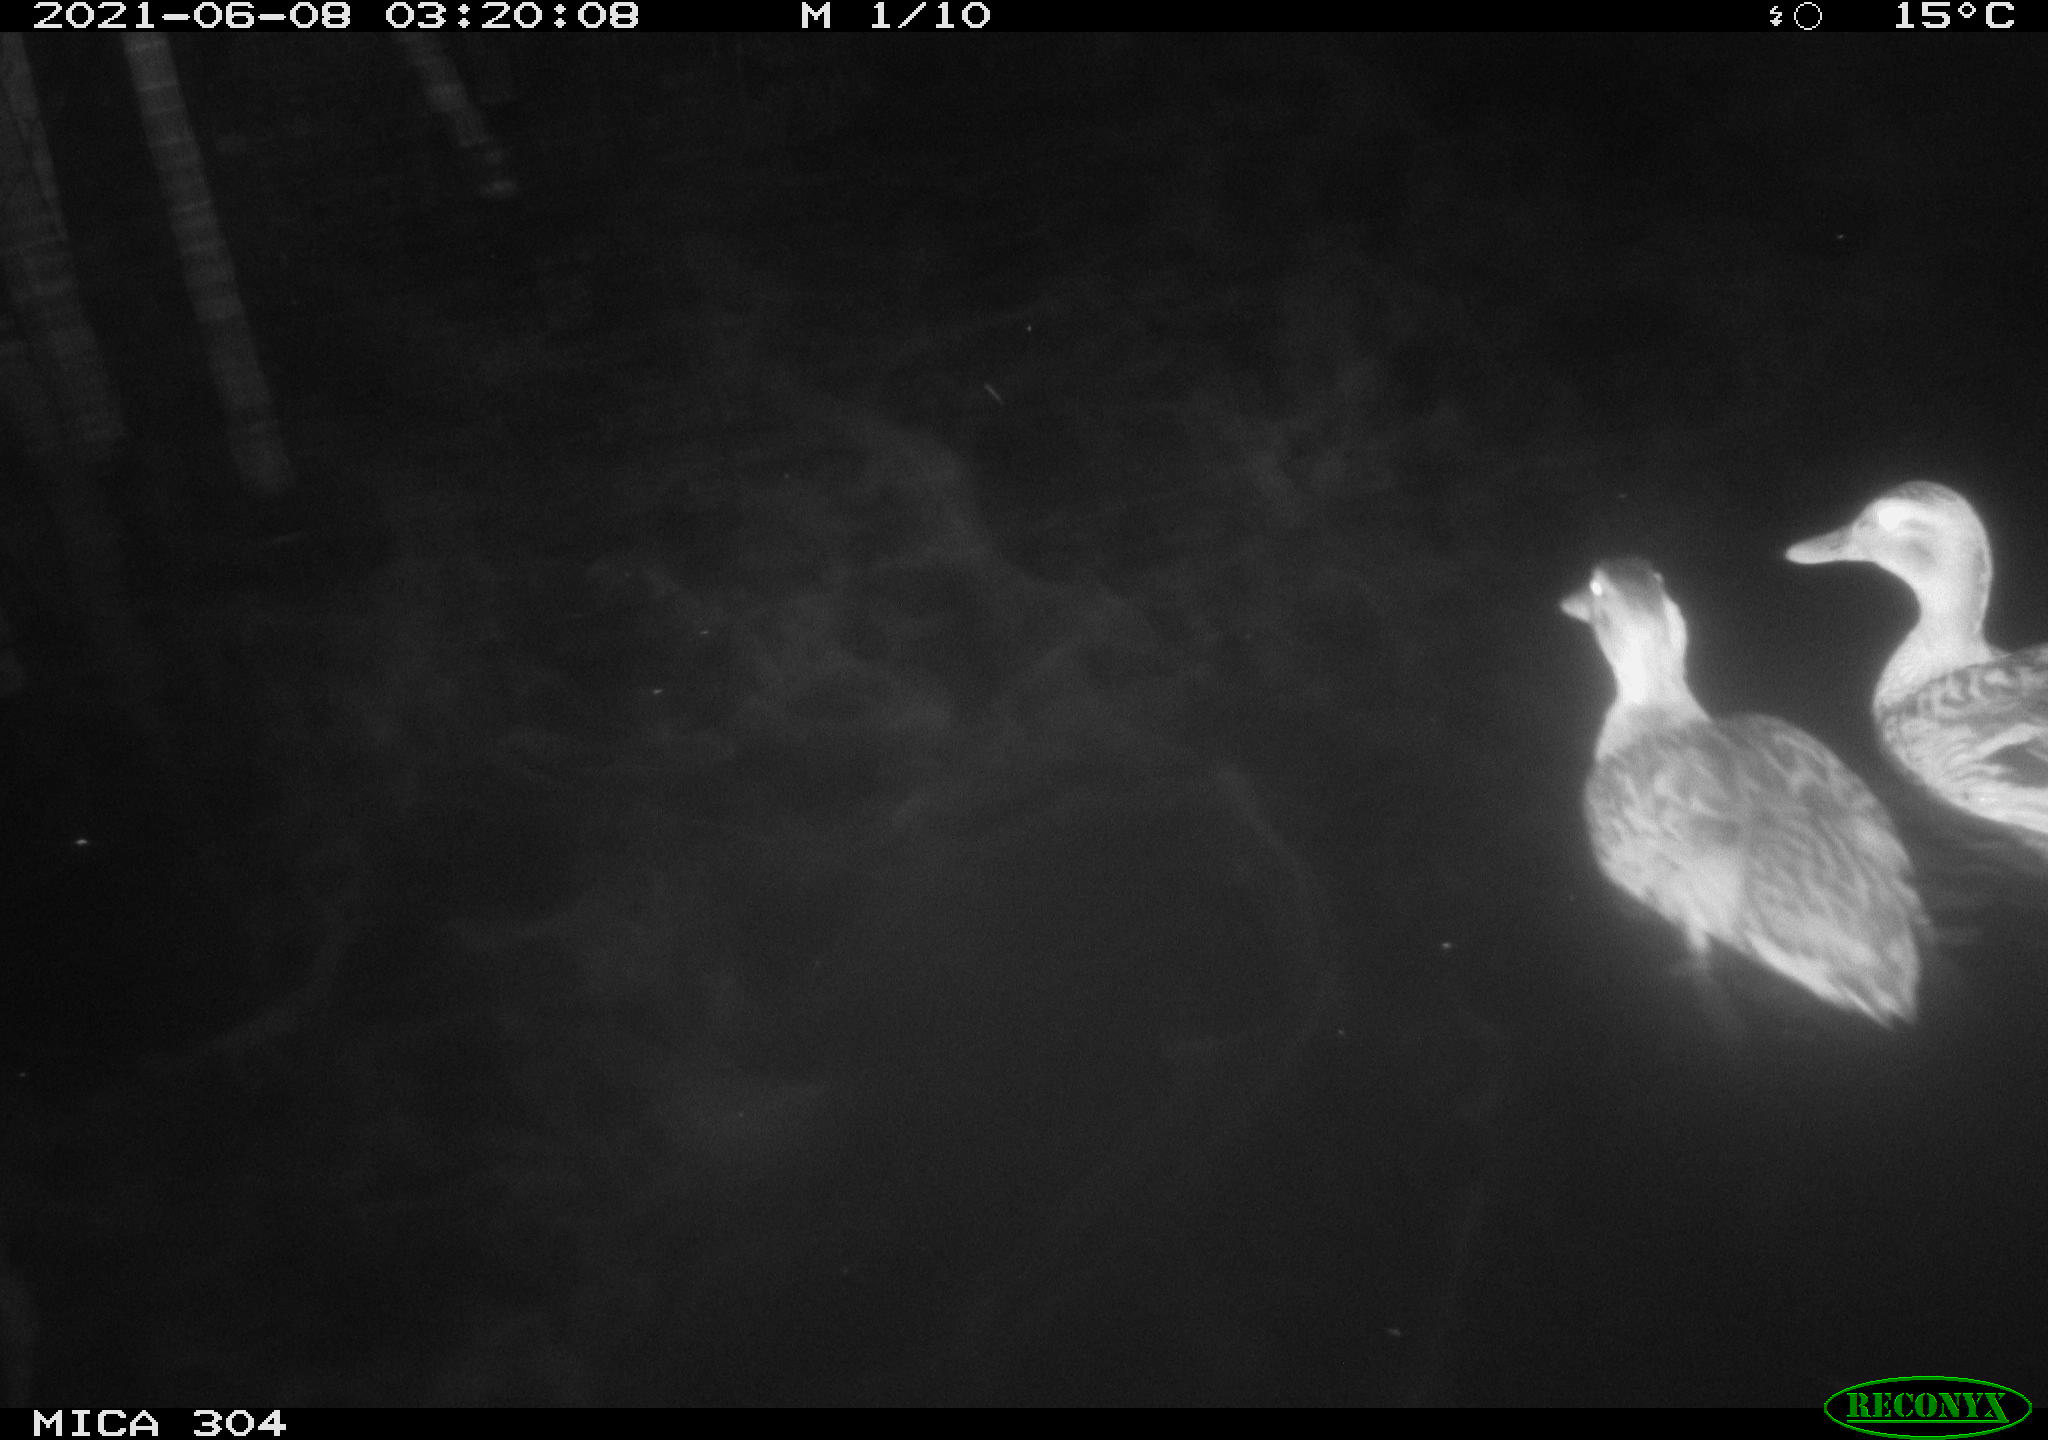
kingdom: Animalia
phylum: Chordata
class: Aves
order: Anseriformes
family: Anatidae
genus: Mareca
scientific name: Mareca strepera
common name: Gadwall
